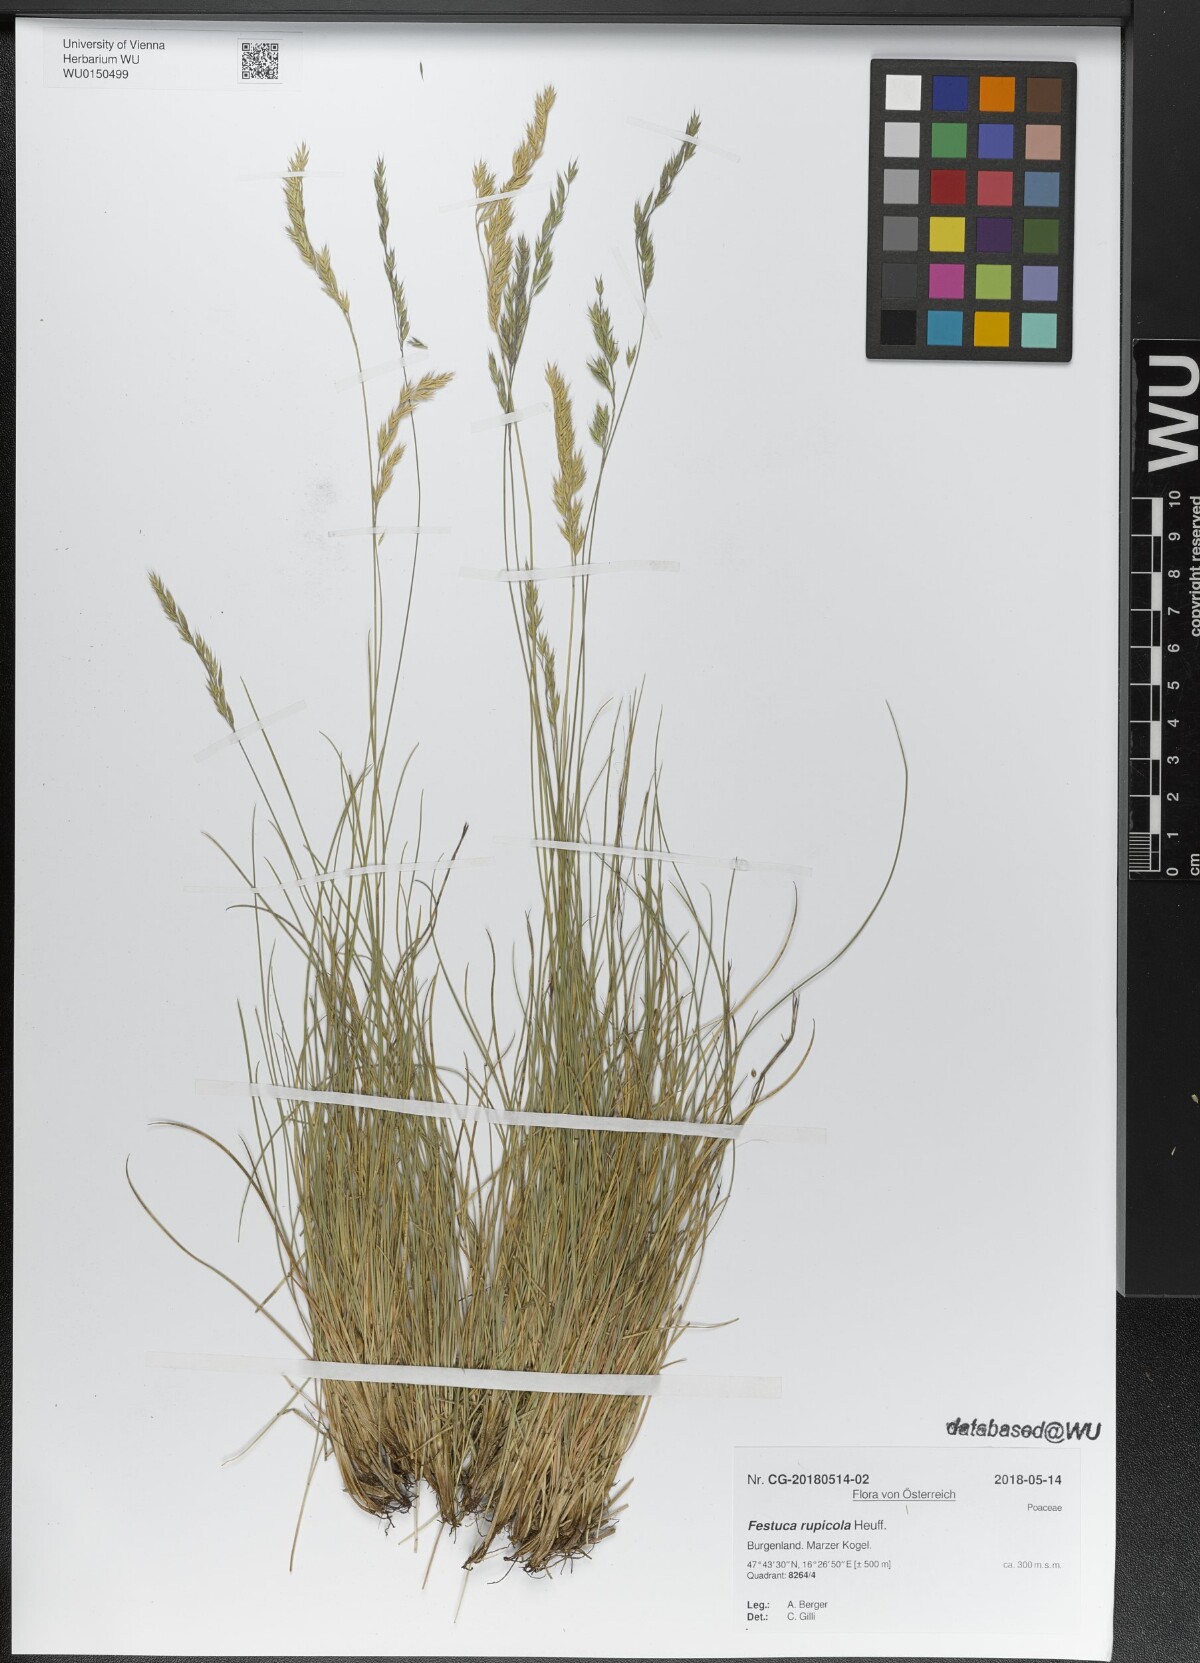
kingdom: Plantae
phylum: Tracheophyta
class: Liliopsida
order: Poales
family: Poaceae
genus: Festuca
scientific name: Festuca rupicola
